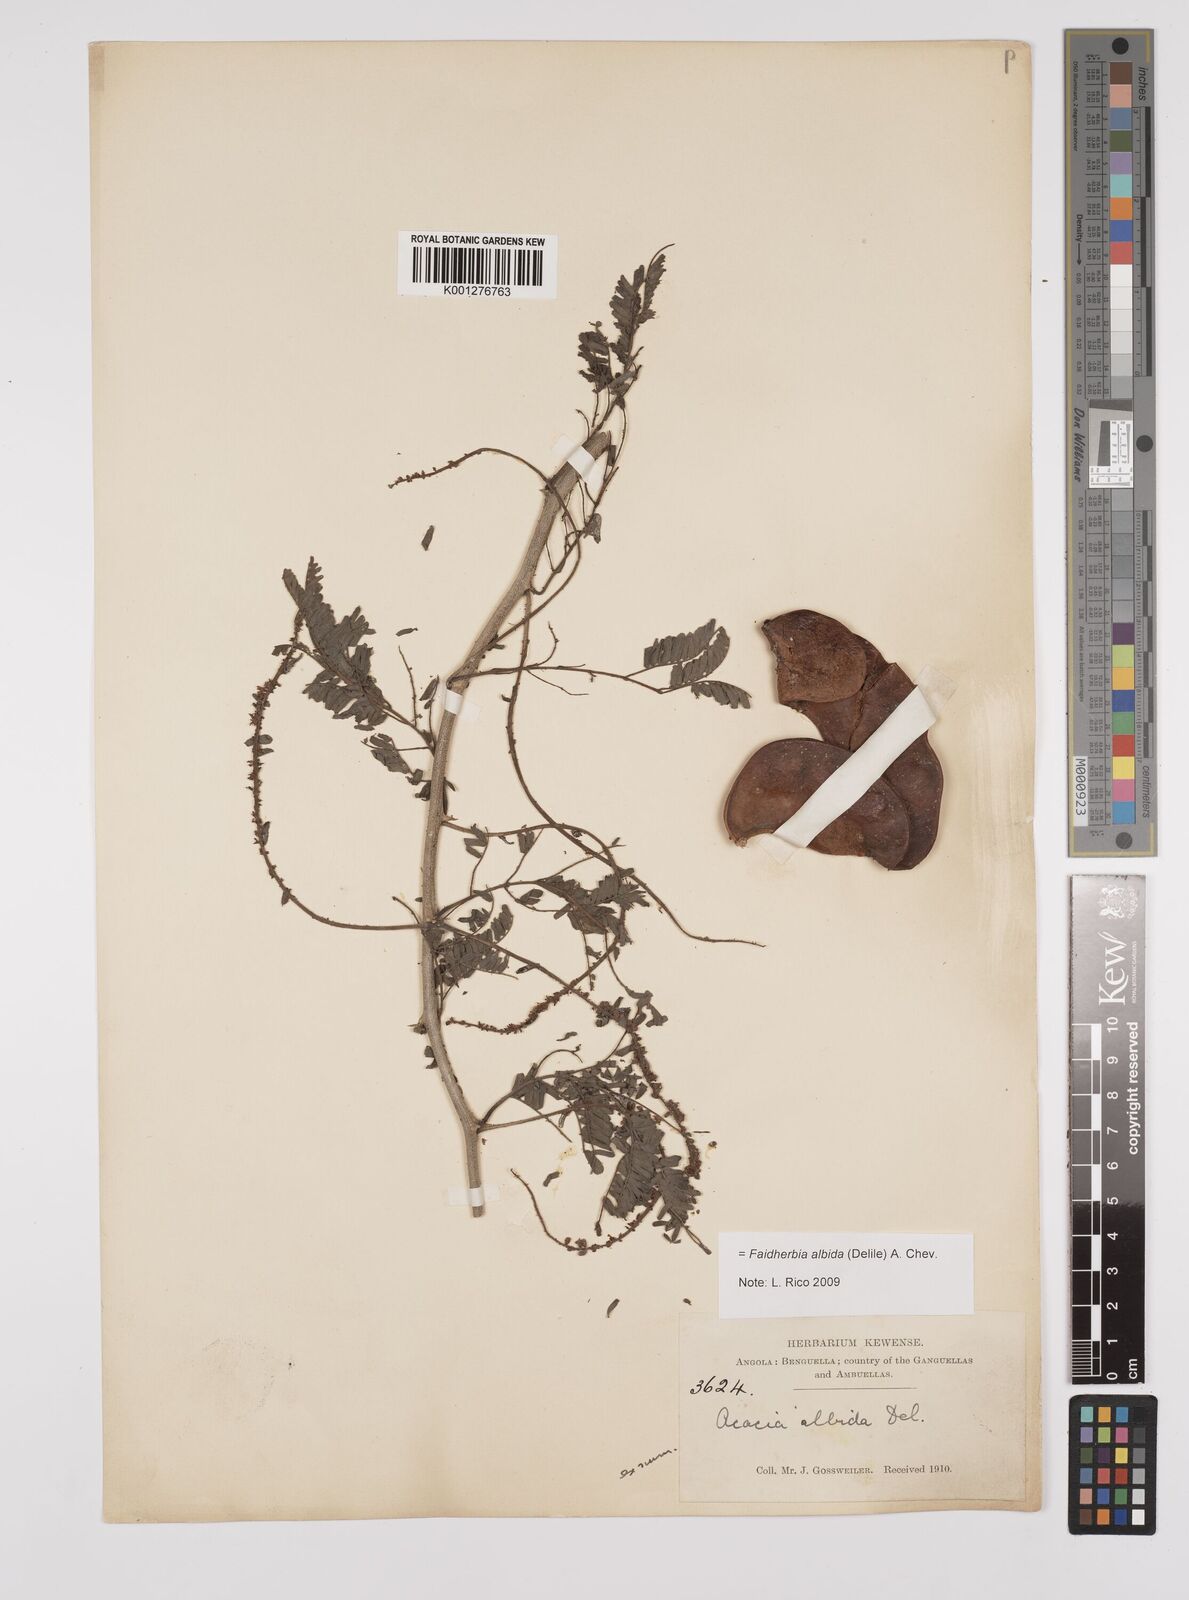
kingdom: Plantae
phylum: Tracheophyta
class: Magnoliopsida
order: Fabales
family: Fabaceae
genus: Faidherbia
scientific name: Faidherbia albida
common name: Anatree
